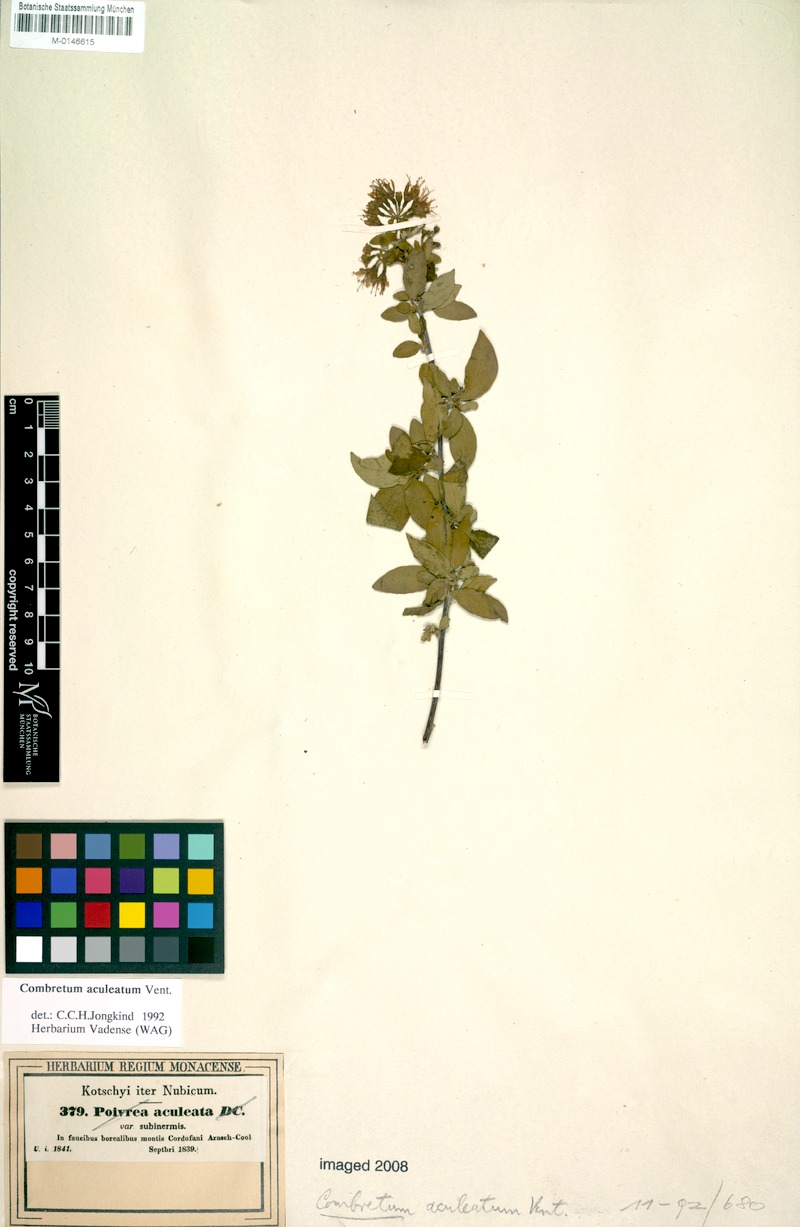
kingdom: Plantae
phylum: Tracheophyta
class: Magnoliopsida
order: Myrtales
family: Combretaceae
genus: Combretum
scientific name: Combretum aculeatum
